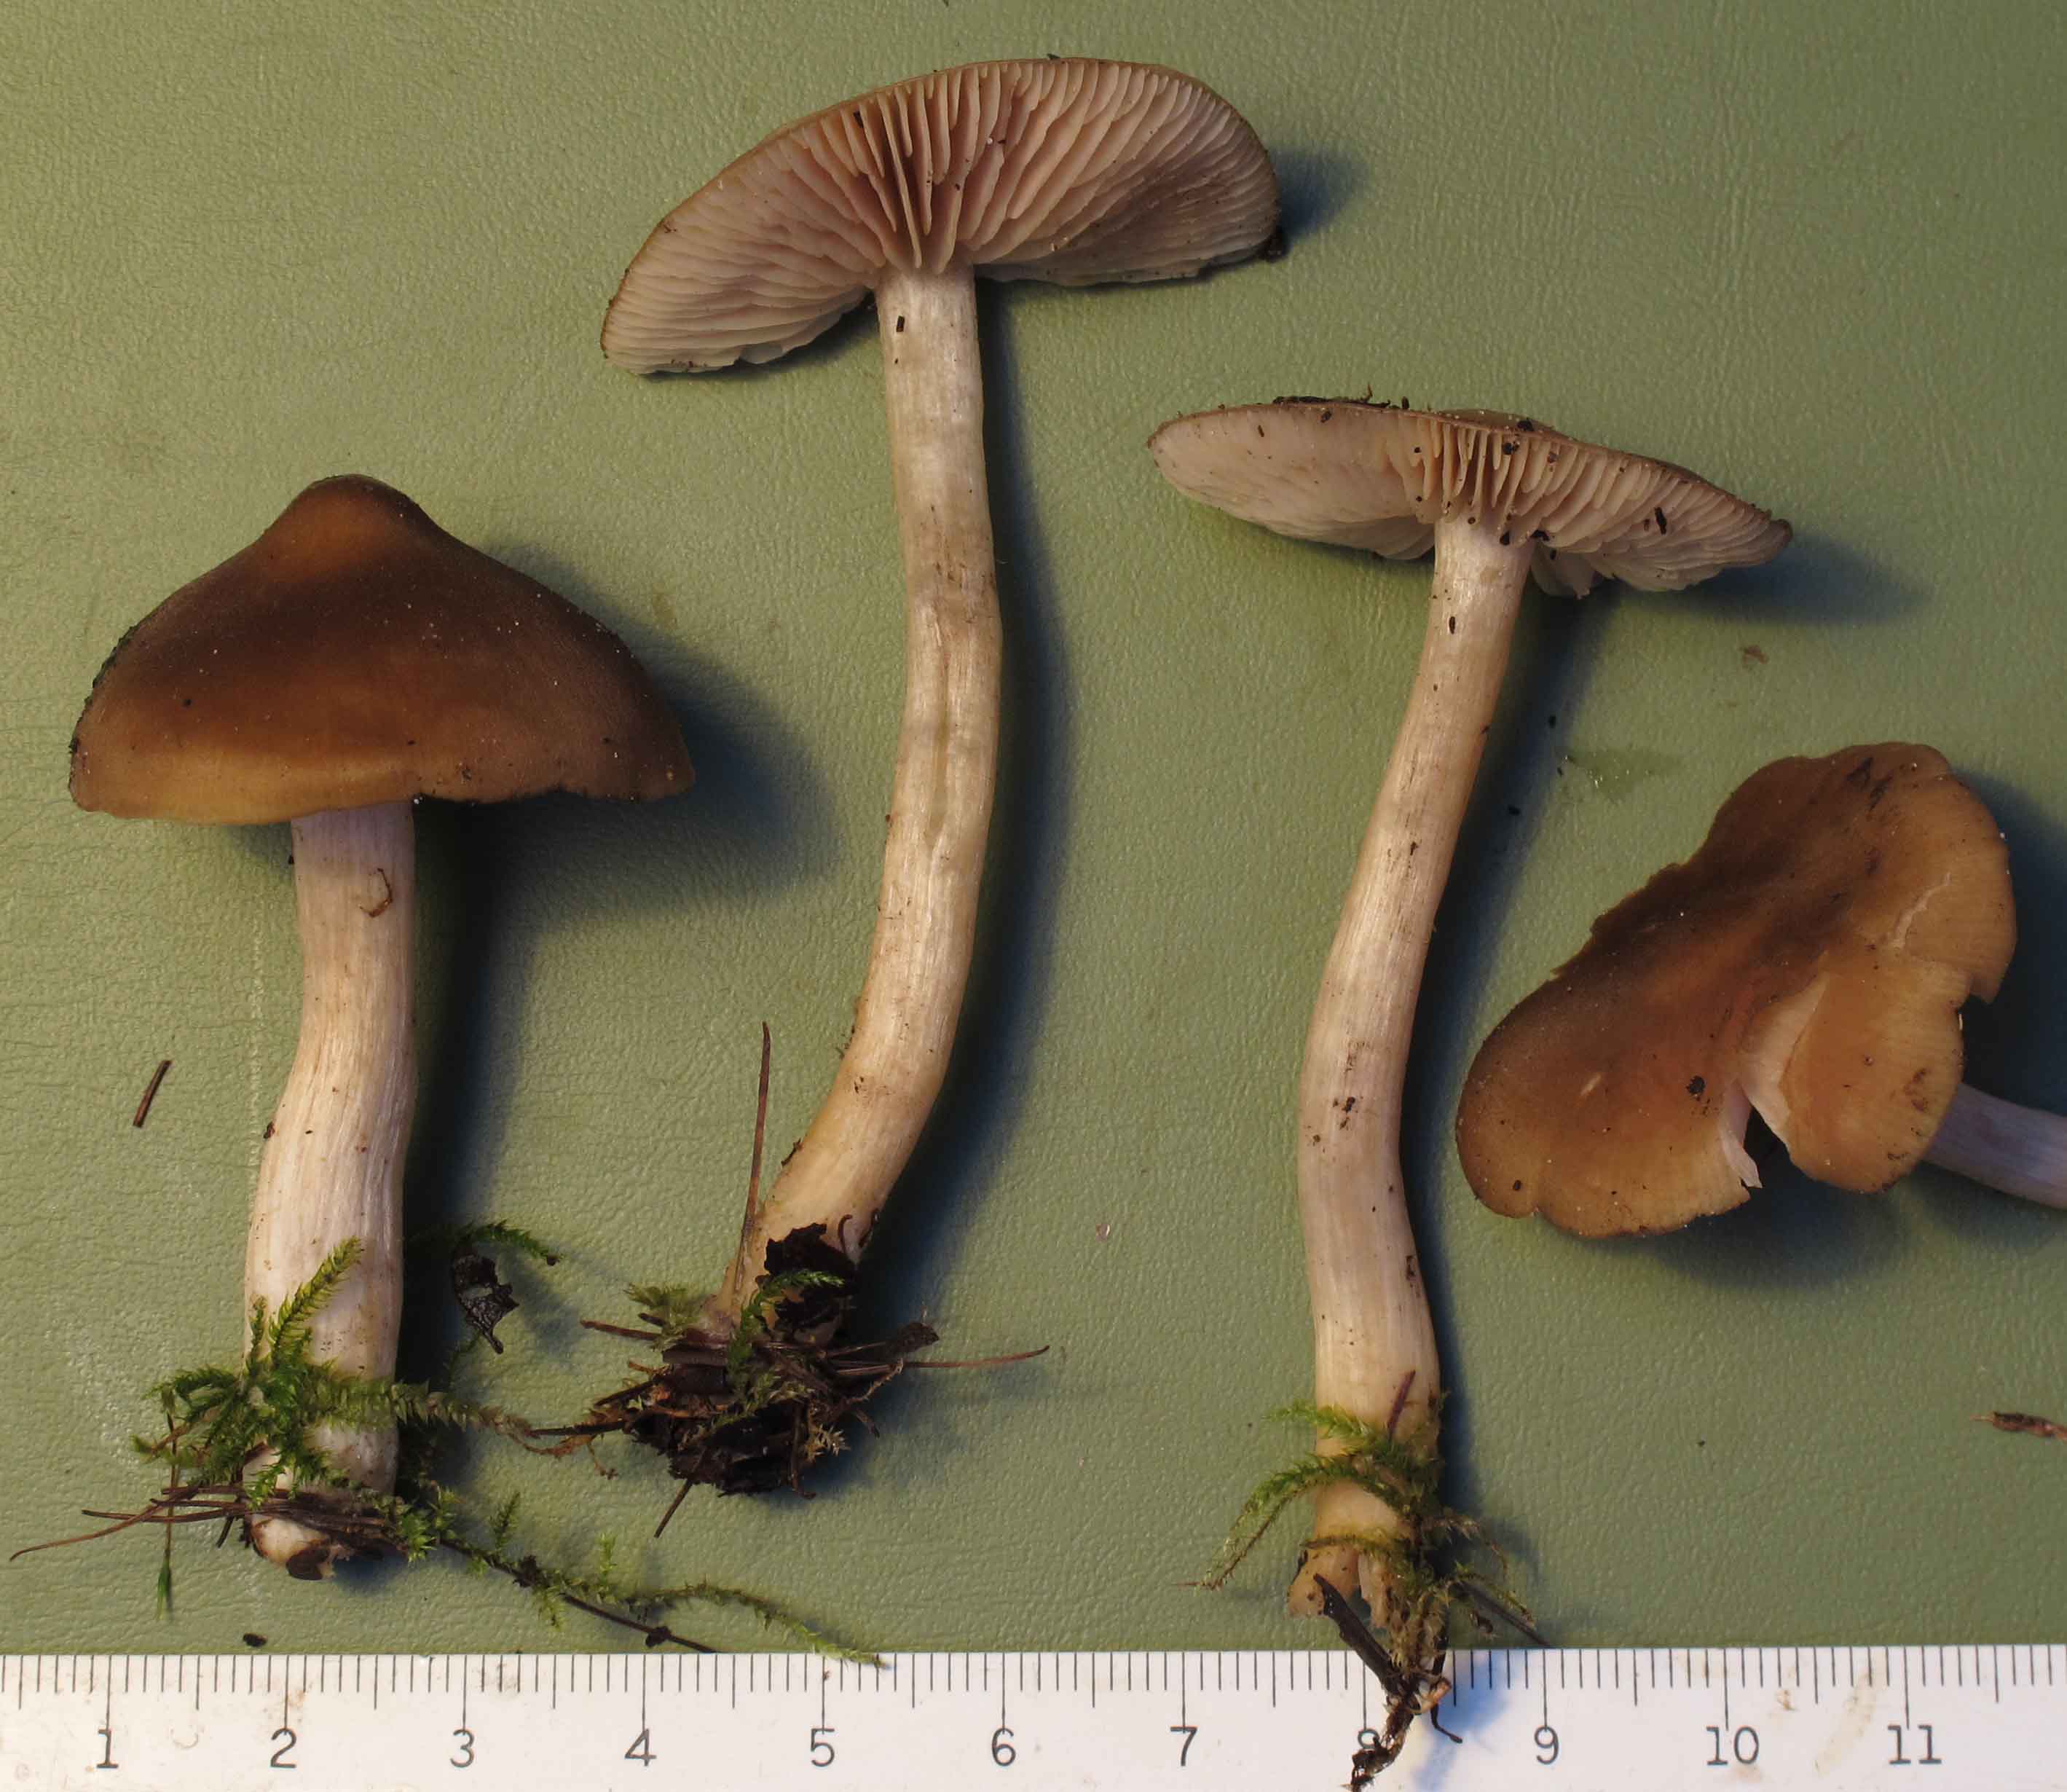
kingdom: Fungi
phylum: Basidiomycota
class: Agaricomycetes
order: Agaricales
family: Entolomataceae
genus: Entoloma
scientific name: Entoloma sericatum
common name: rank rødblad
